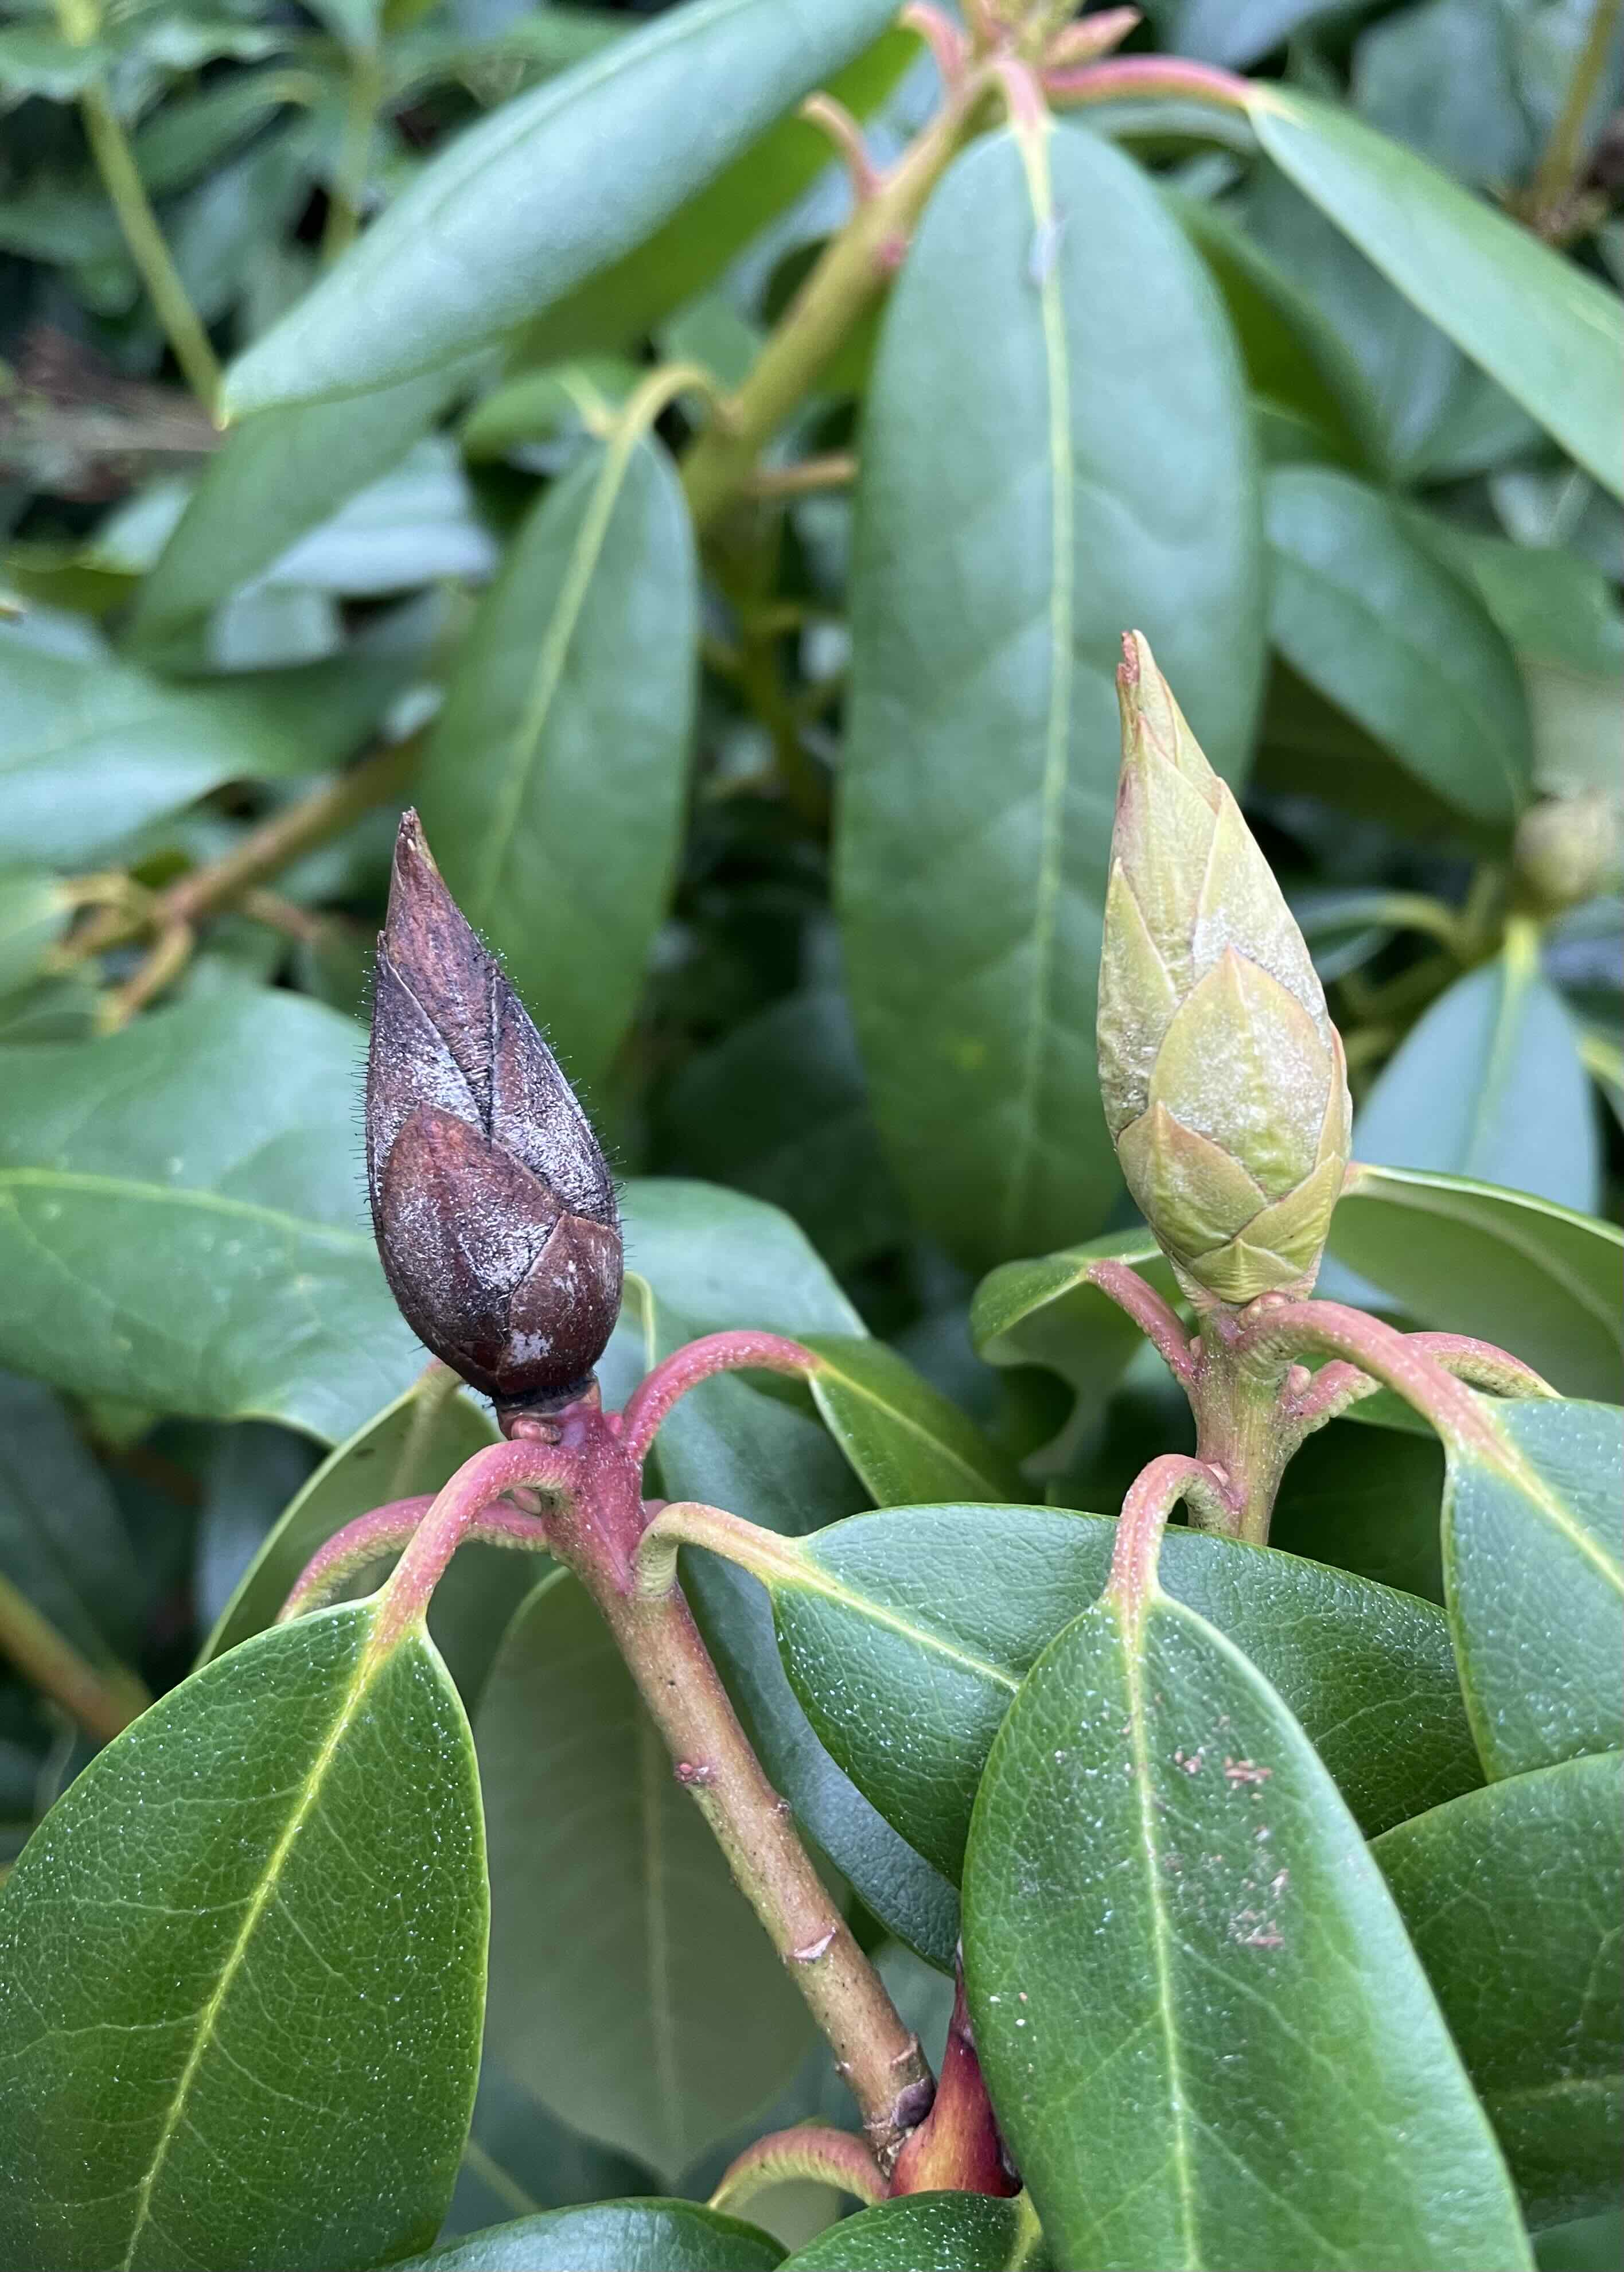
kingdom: Fungi
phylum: Ascomycota
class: Dothideomycetes
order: Pleosporales
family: Melanommataceae
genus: Seifertia
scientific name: Seifertia azaleae
